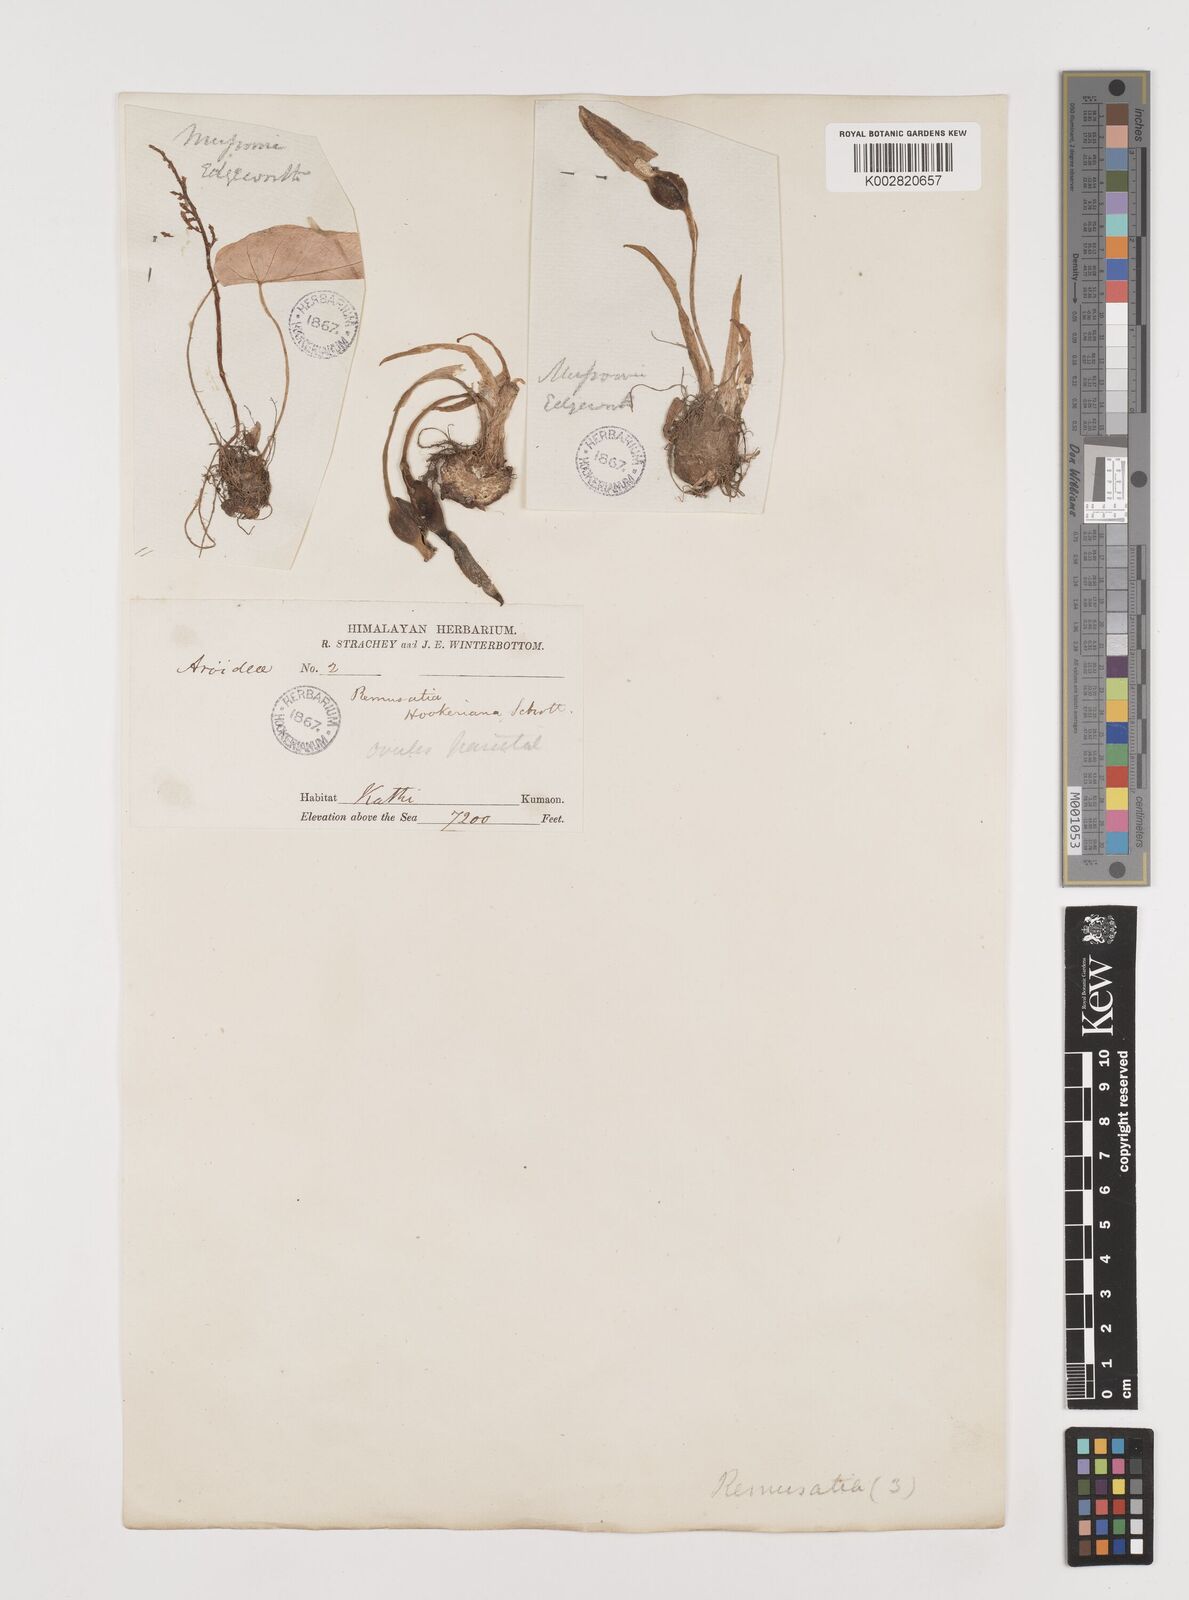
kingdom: Plantae
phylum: Tracheophyta
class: Liliopsida
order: Alismatales
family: Araceae
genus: Remusatia
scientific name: Remusatia hookeriana
